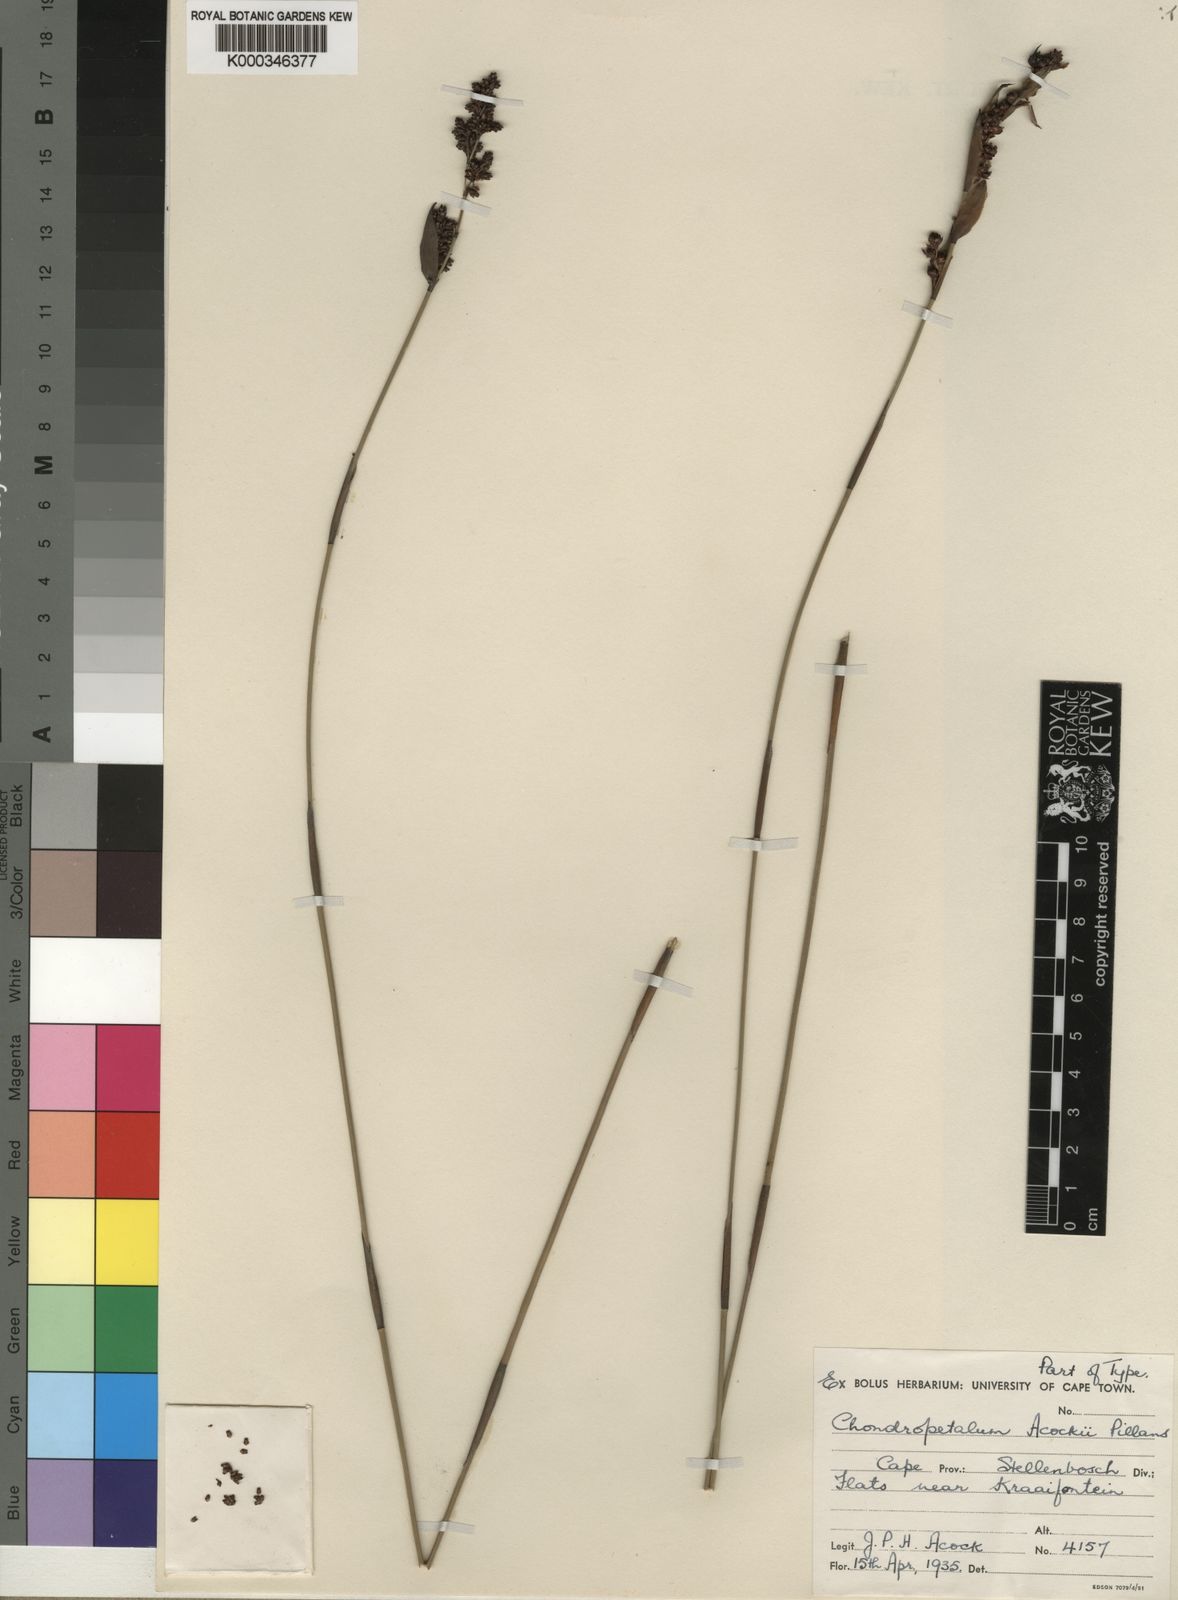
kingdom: Plantae
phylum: Tracheophyta
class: Liliopsida
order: Poales
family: Restionaceae
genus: Elegia
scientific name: Elegia acockii
